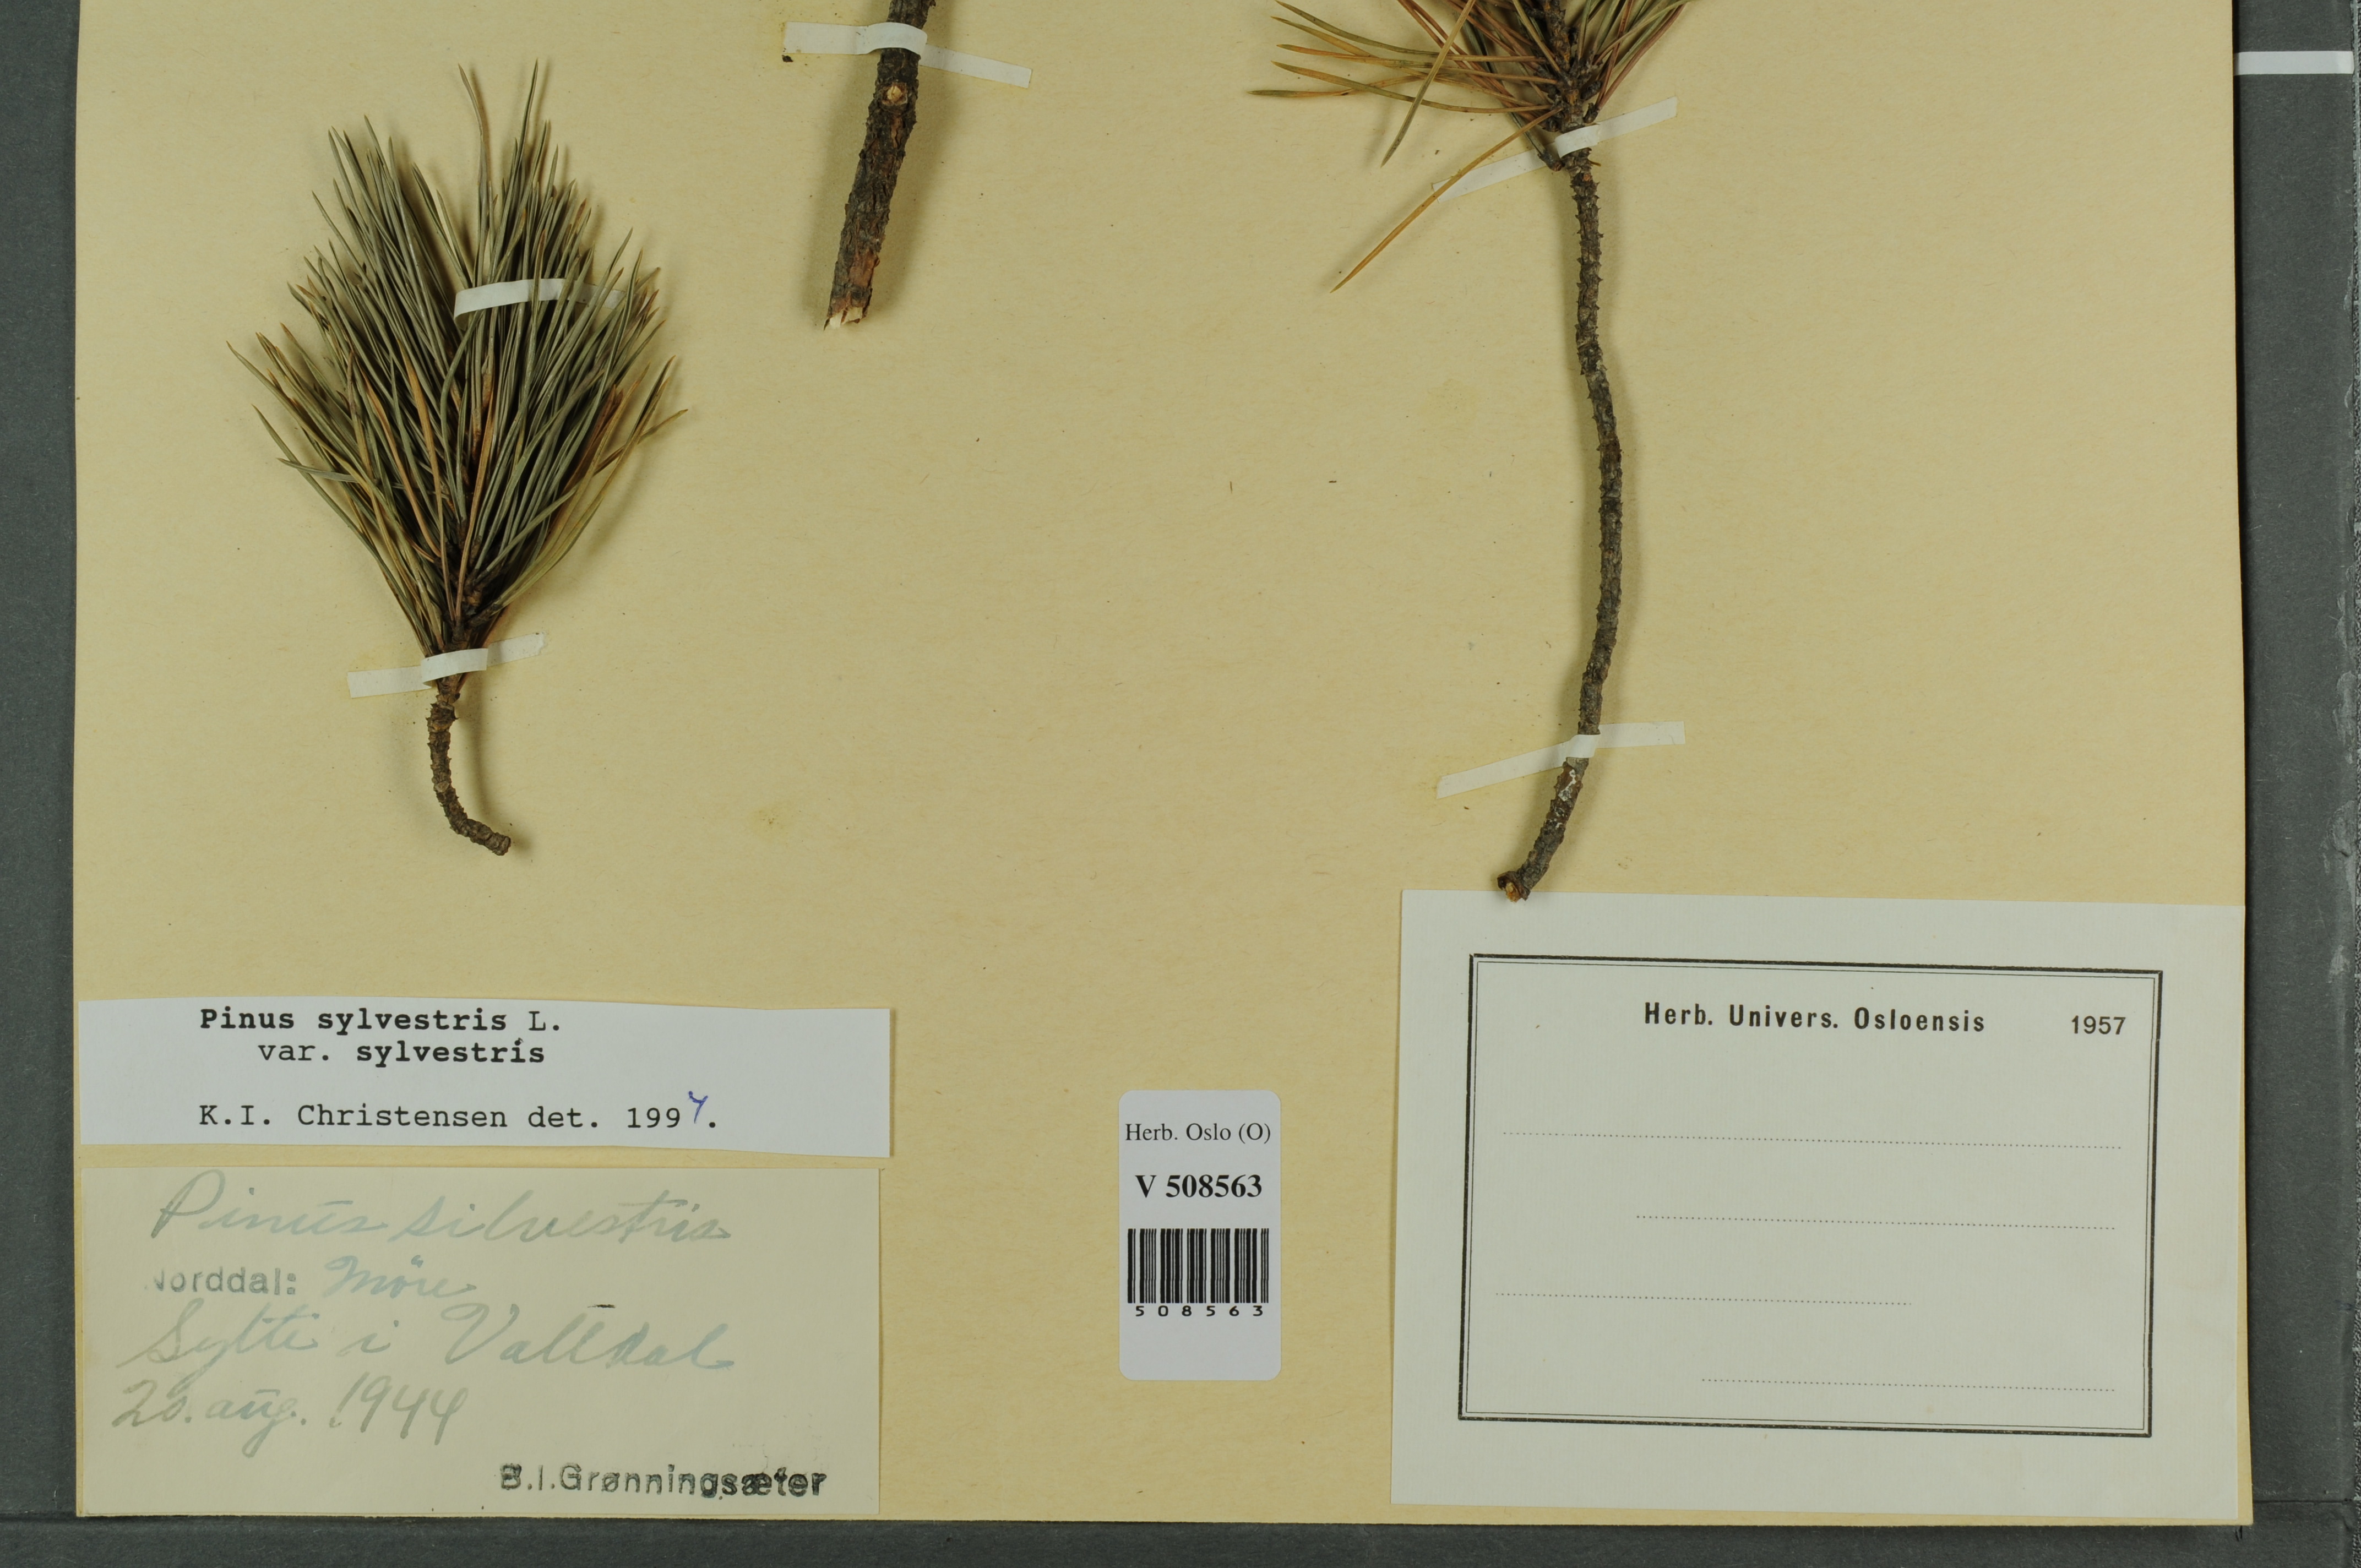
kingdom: Plantae
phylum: Tracheophyta
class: Pinopsida
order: Pinales
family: Pinaceae
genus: Pinus
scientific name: Pinus sylvestris
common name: Scots pine
